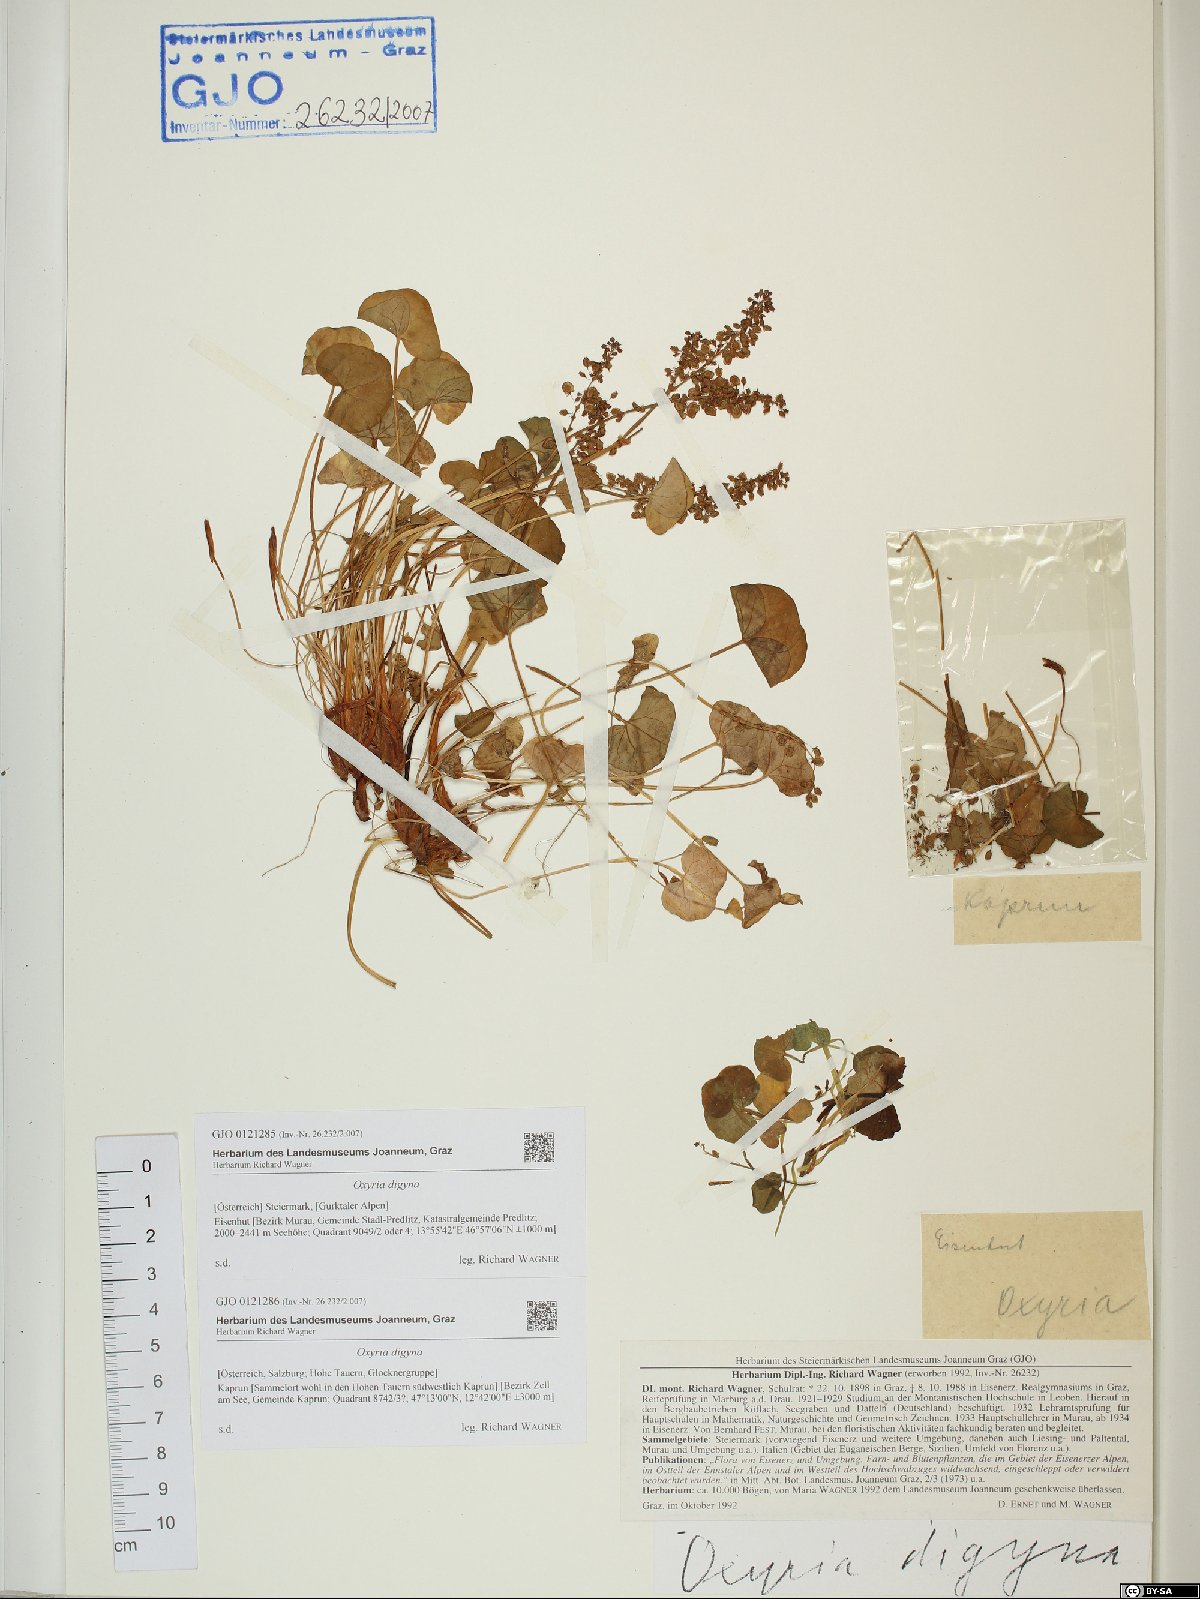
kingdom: Plantae
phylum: Tracheophyta
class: Magnoliopsida
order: Caryophyllales
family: Polygonaceae
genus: Oxyria
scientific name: Oxyria digyna
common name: Alpine mountain-sorrel
